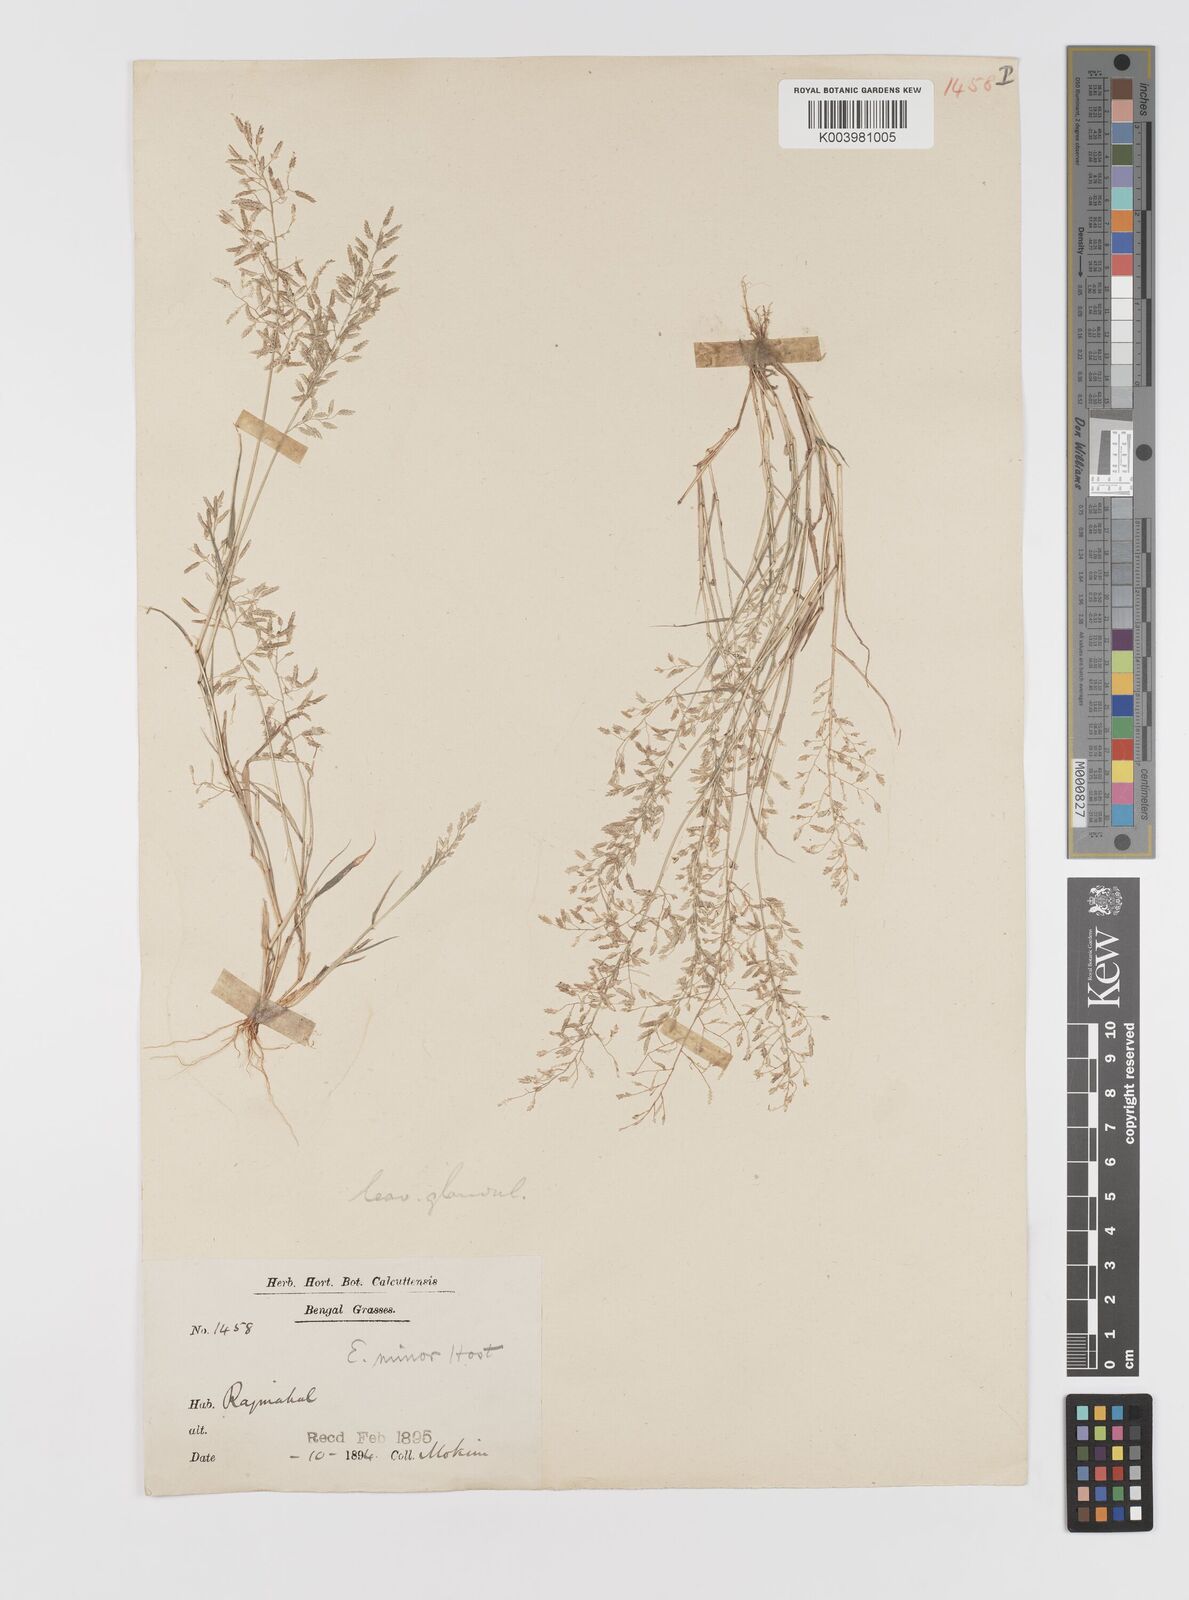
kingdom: Plantae
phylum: Tracheophyta
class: Liliopsida
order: Poales
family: Poaceae
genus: Eragrostis
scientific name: Eragrostis minor
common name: Small love-grass
